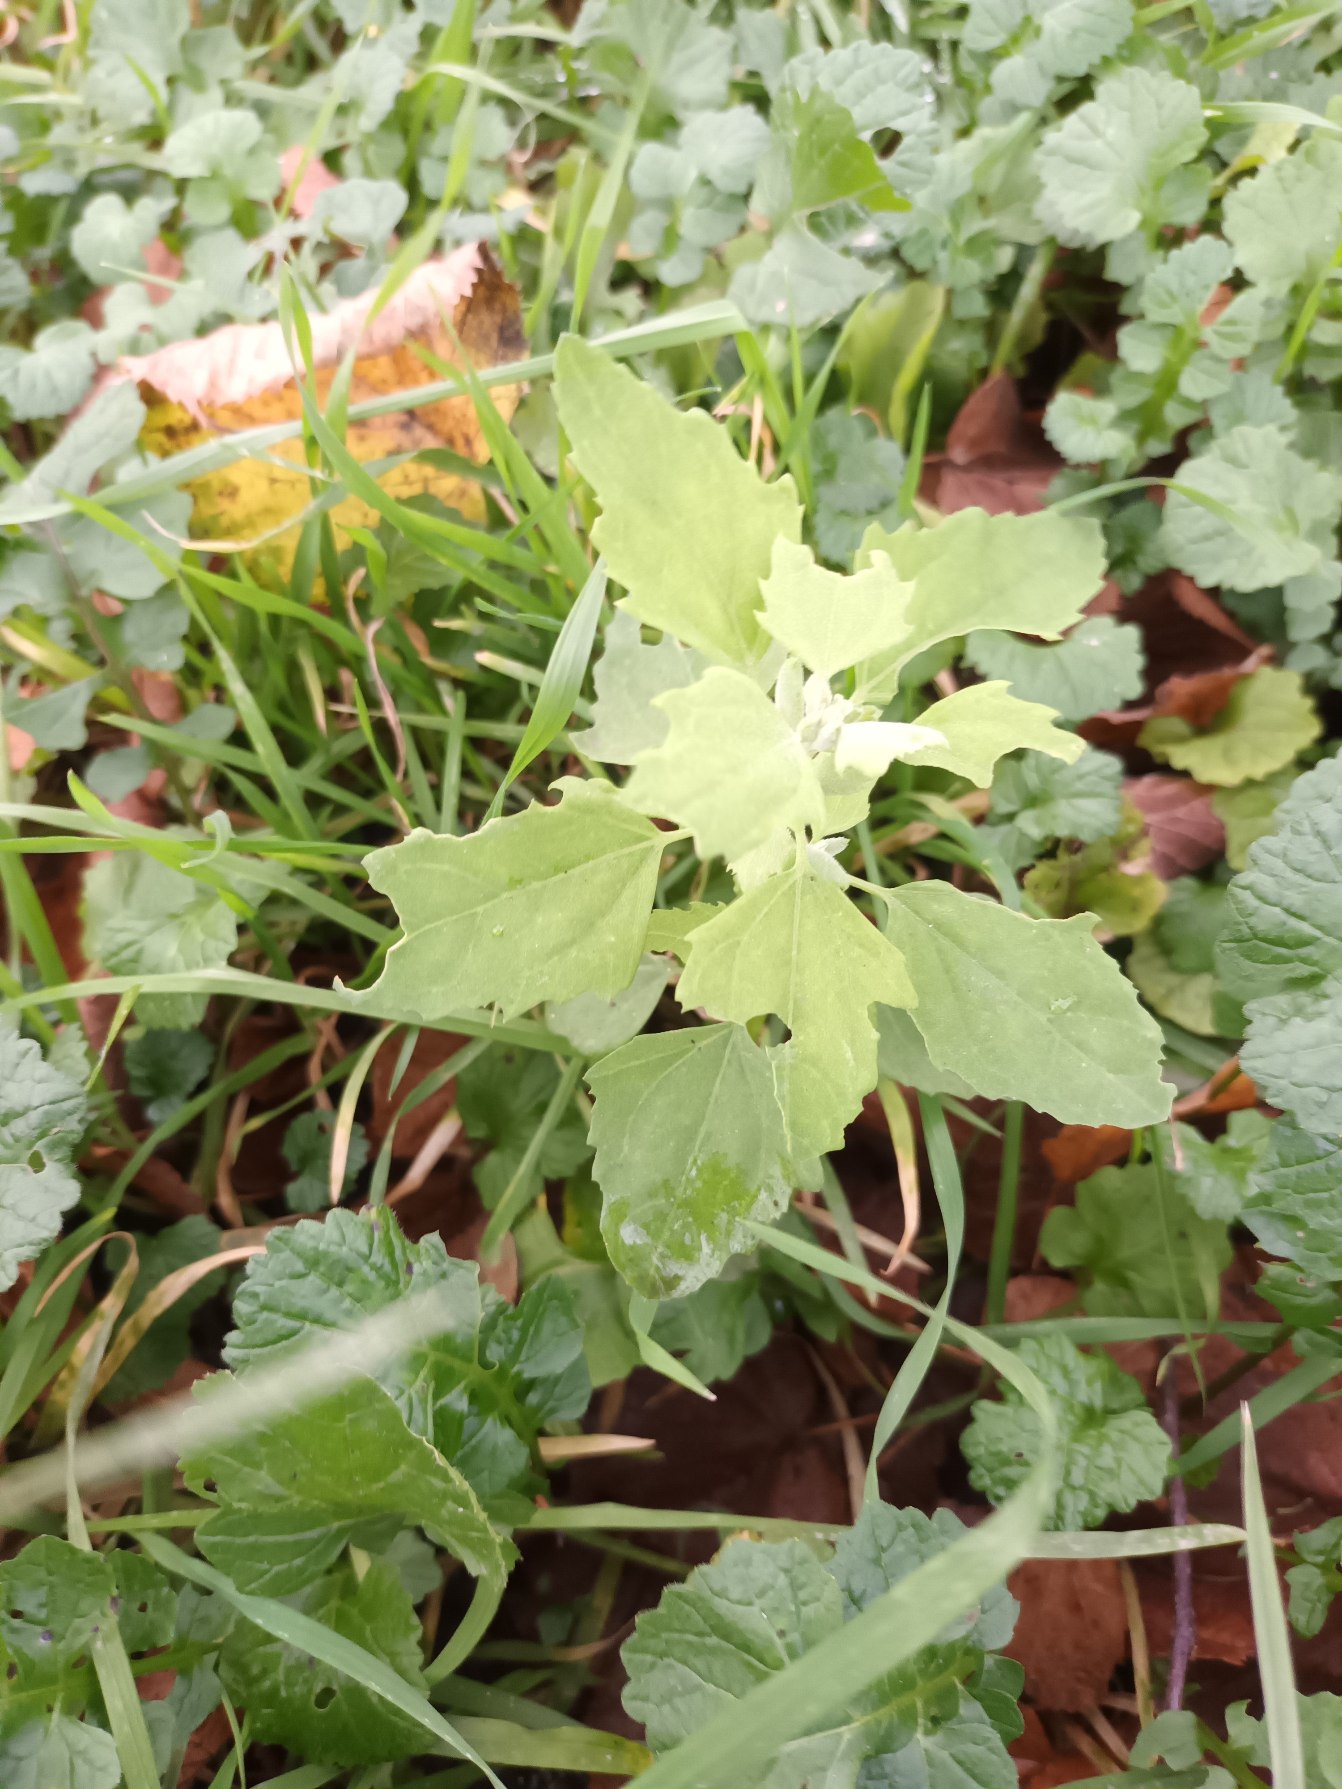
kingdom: Plantae
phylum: Tracheophyta
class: Magnoliopsida
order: Caryophyllales
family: Amaranthaceae
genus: Chenopodium
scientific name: Chenopodium album
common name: Hvidmelet gåsefod
